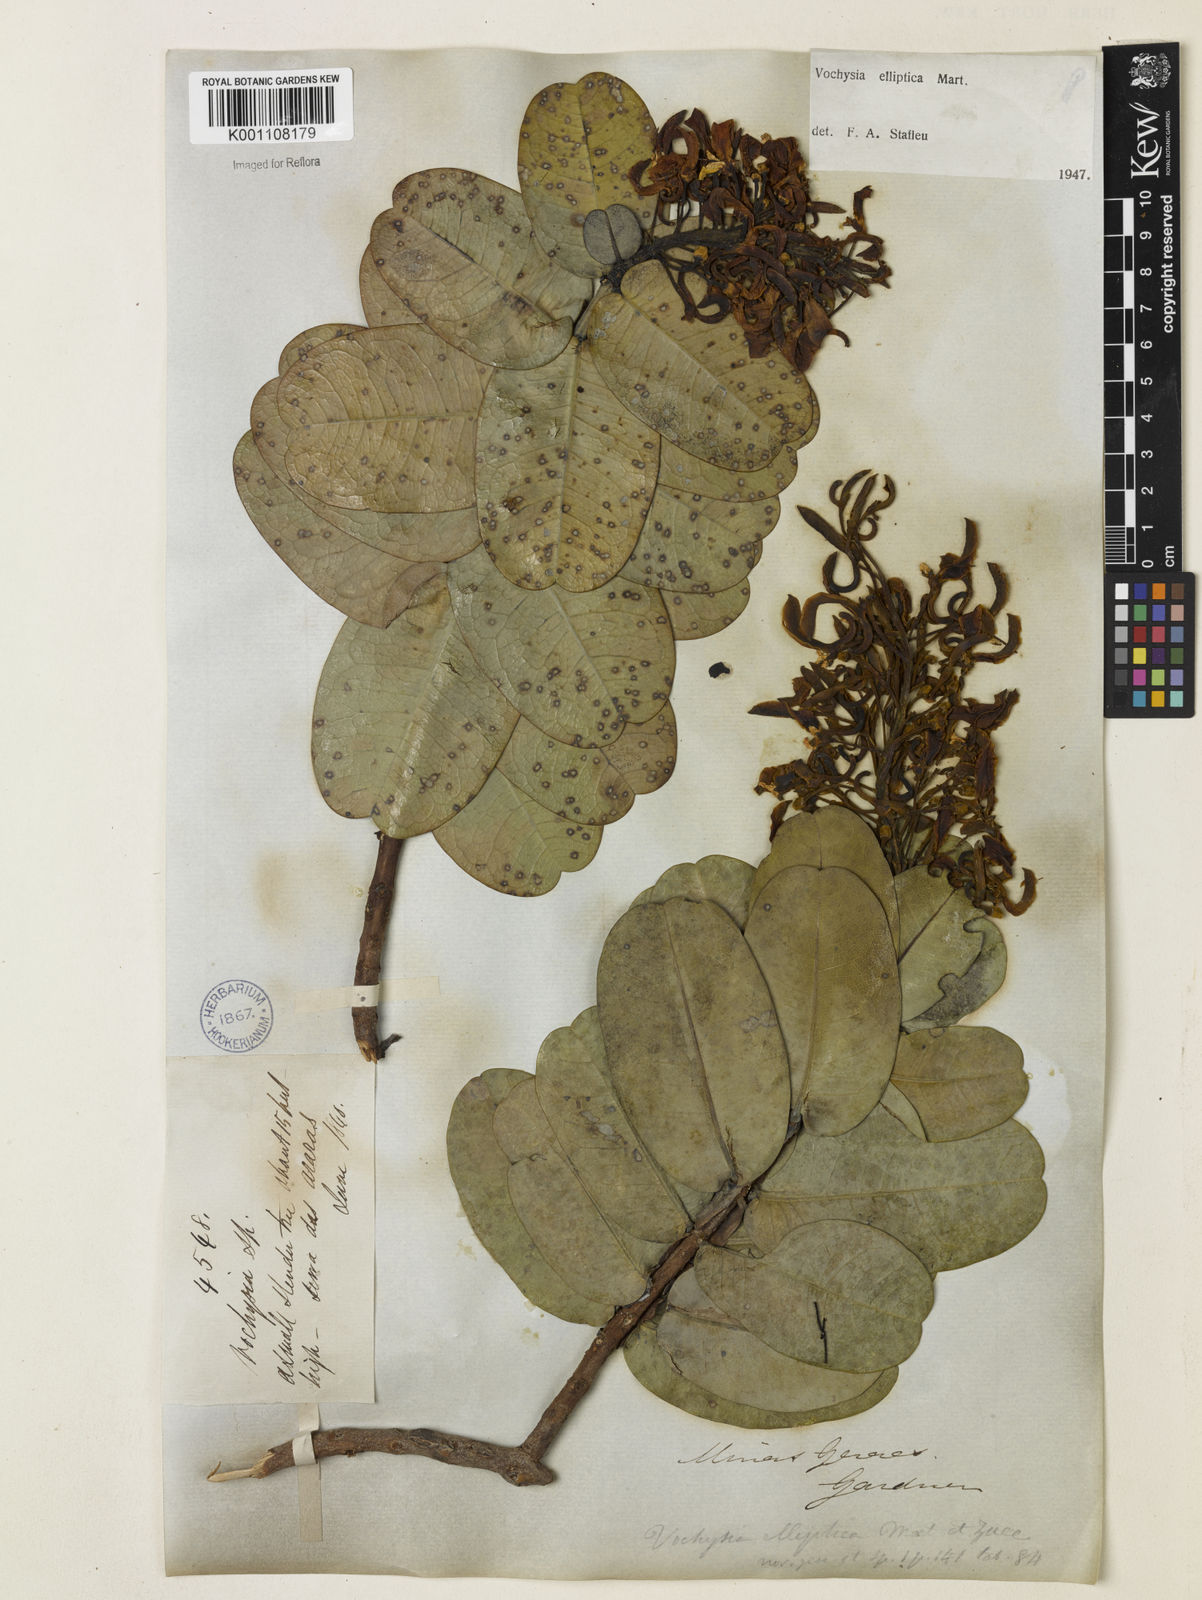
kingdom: Plantae
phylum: Tracheophyta
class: Magnoliopsida
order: Myrtales
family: Vochysiaceae
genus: Vochysia
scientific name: Vochysia elliptica
